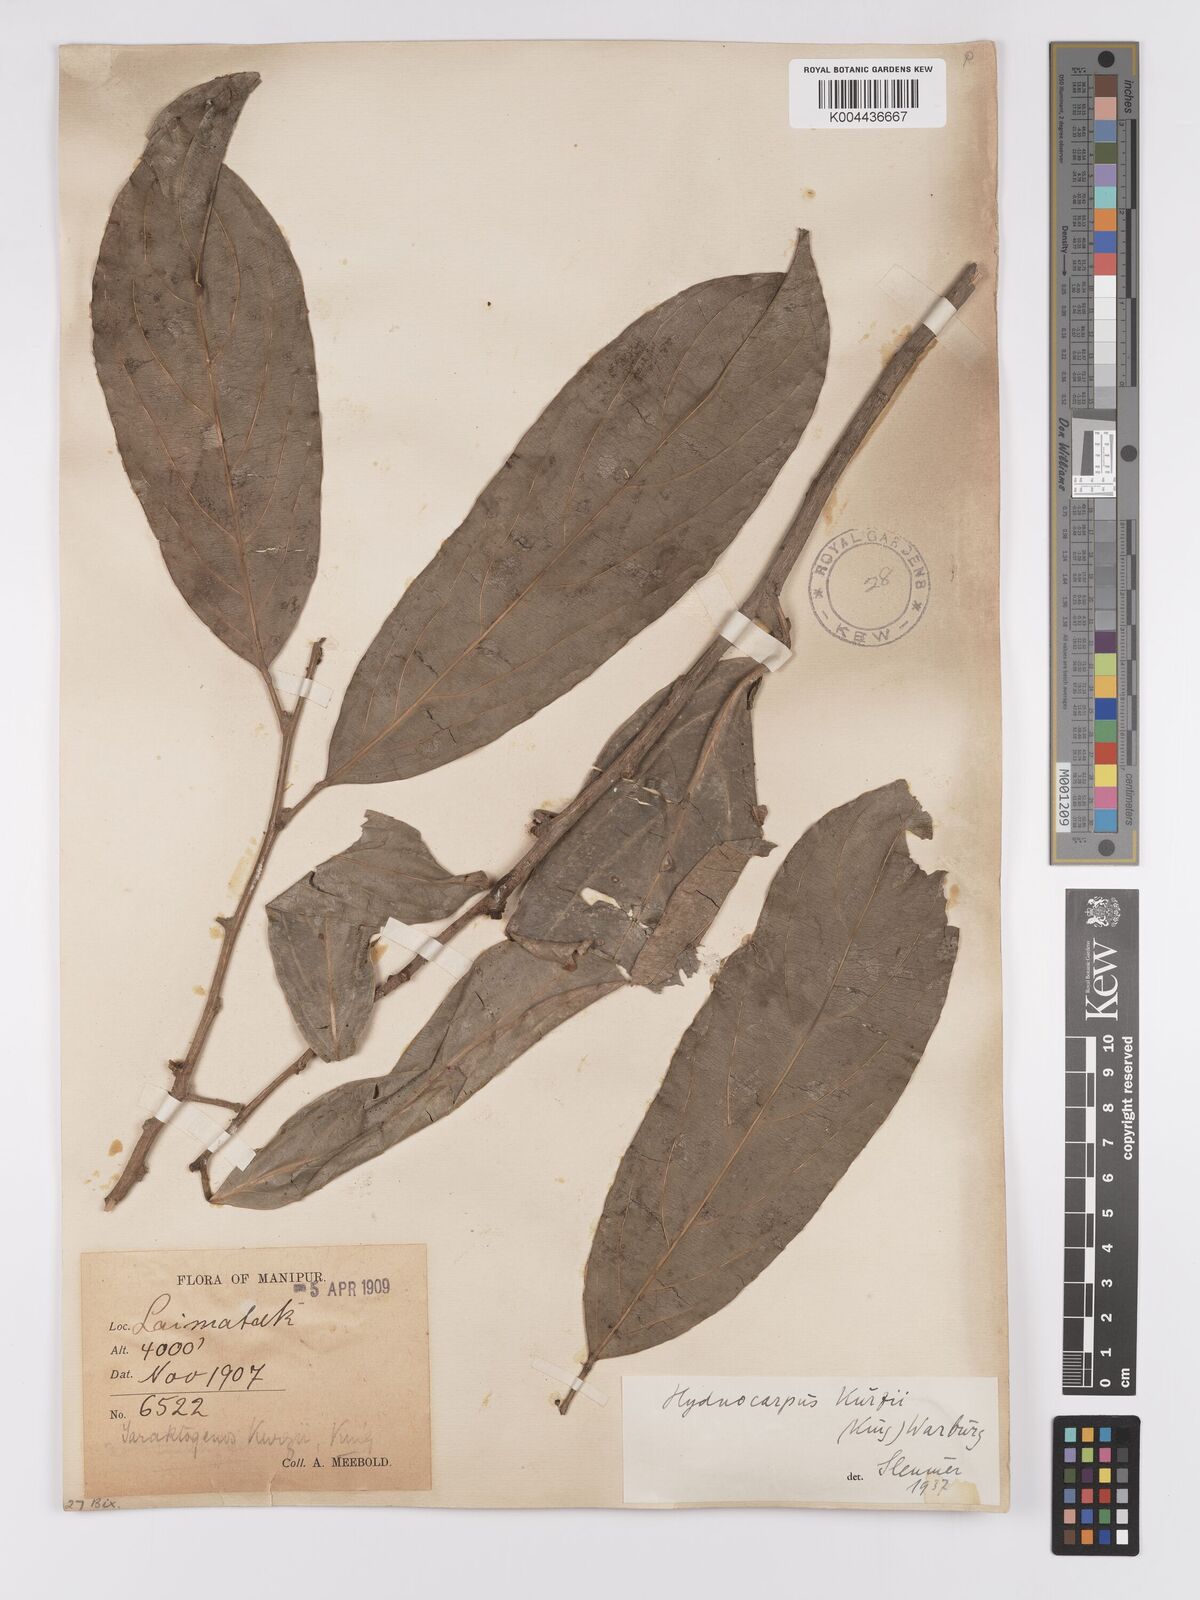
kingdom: Plantae
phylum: Tracheophyta
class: Magnoliopsida
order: Malpighiales
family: Achariaceae
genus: Hydnocarpus
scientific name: Hydnocarpus kurzii
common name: Chaulmoogra
